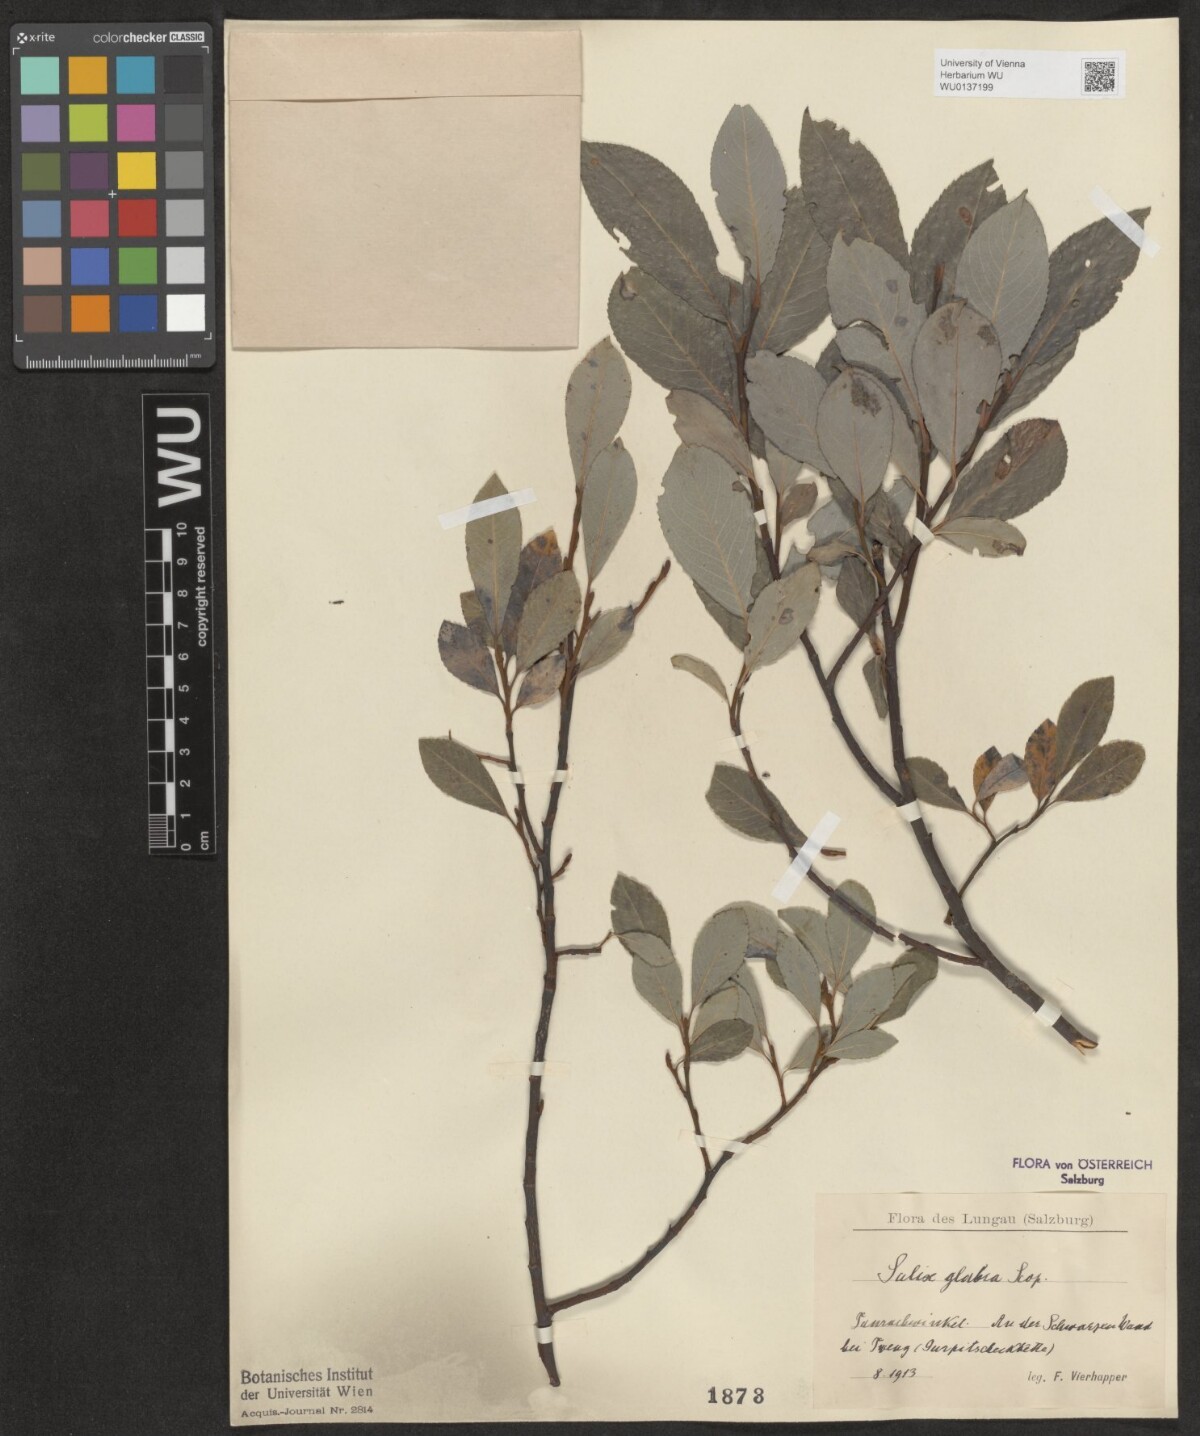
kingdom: Plantae
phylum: Tracheophyta
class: Magnoliopsida
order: Malpighiales
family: Salicaceae
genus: Salix
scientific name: Salix glabra
